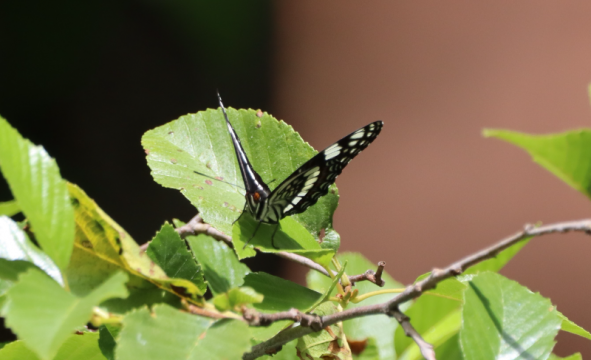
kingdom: Animalia
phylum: Arthropoda
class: Insecta
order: Lepidoptera
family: Nymphalidae
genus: Limenitis
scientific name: Limenitis weidemeyerii
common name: Weidemeyer's Admiral
